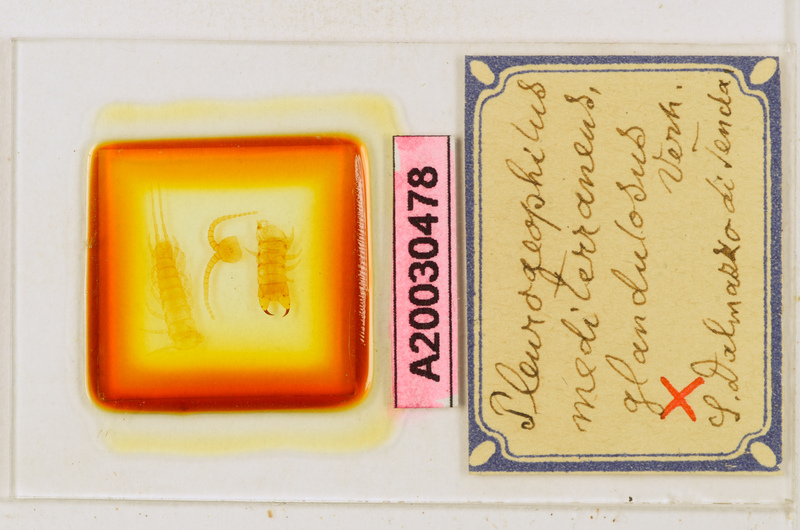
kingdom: Animalia
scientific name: Animalia
